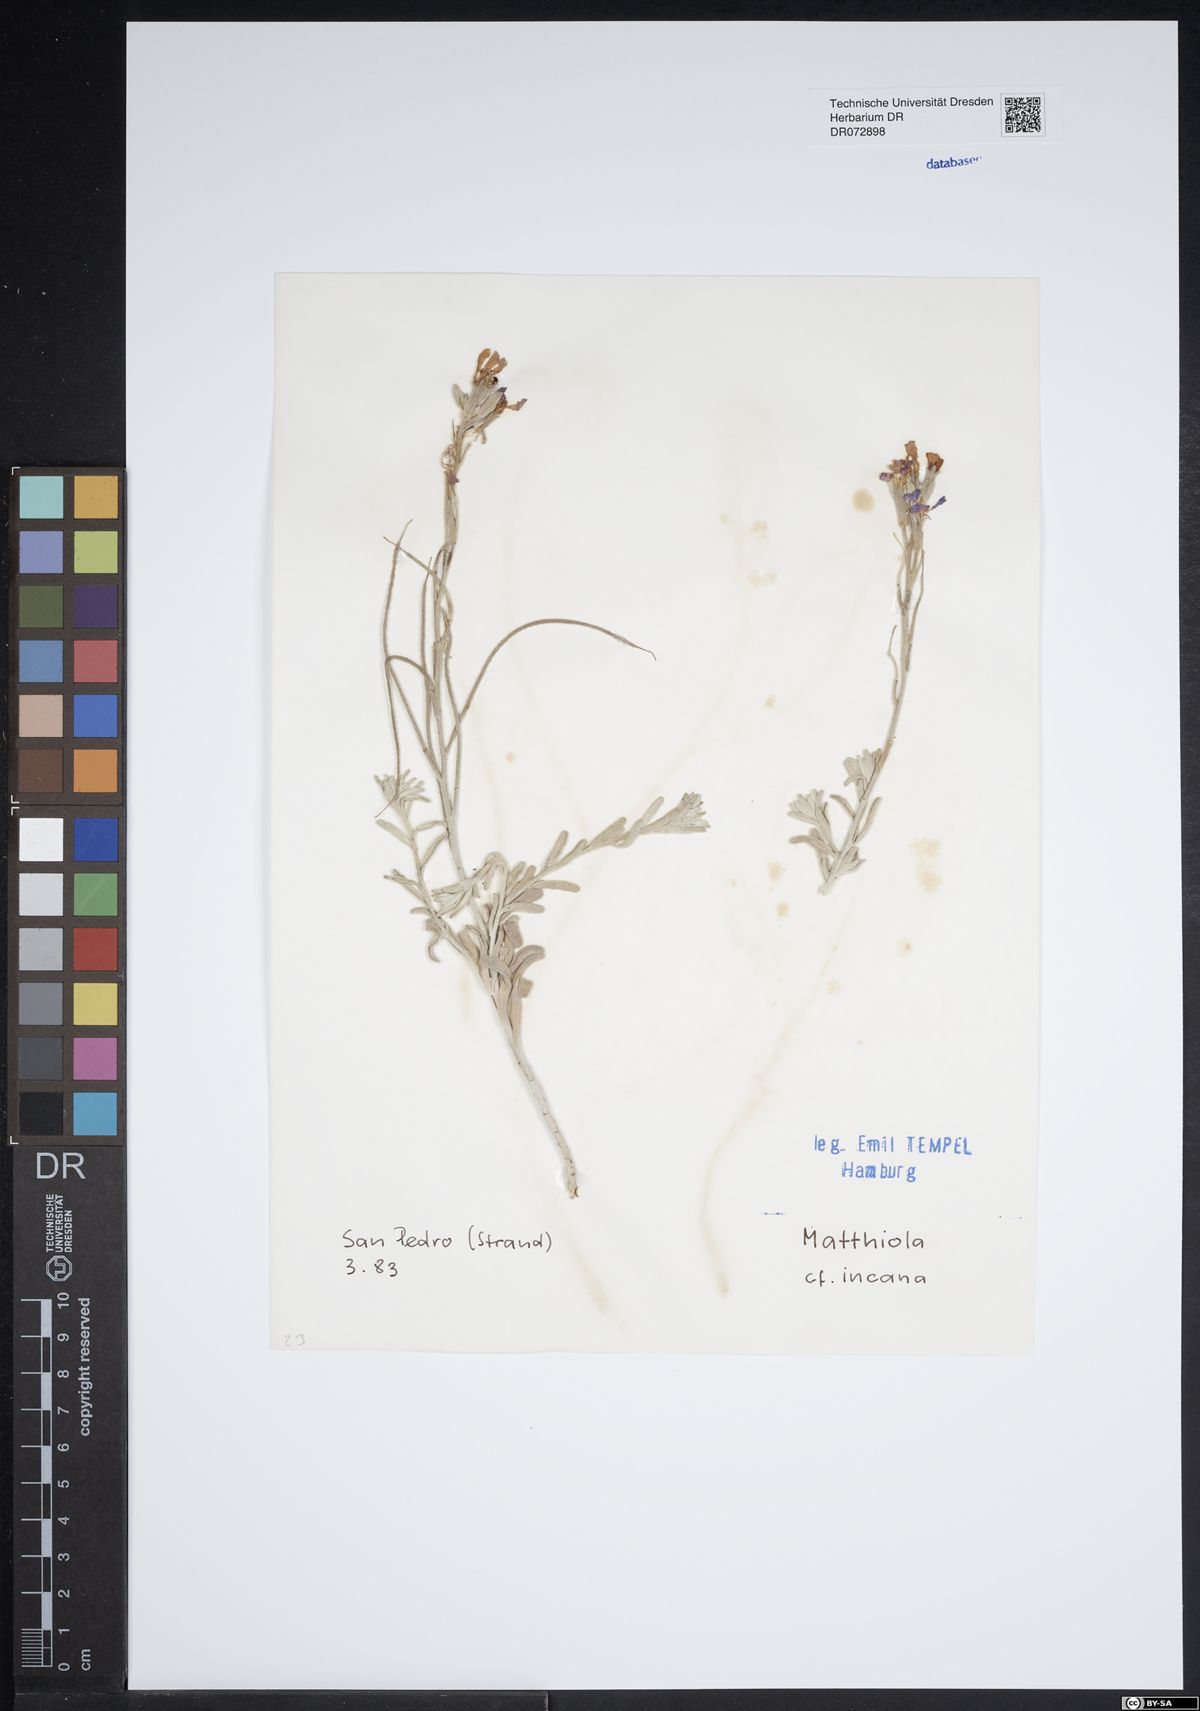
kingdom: Plantae
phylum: Tracheophyta
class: Magnoliopsida
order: Brassicales
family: Brassicaceae
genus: Matthiola
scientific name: Matthiola incana
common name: Hoary stock
